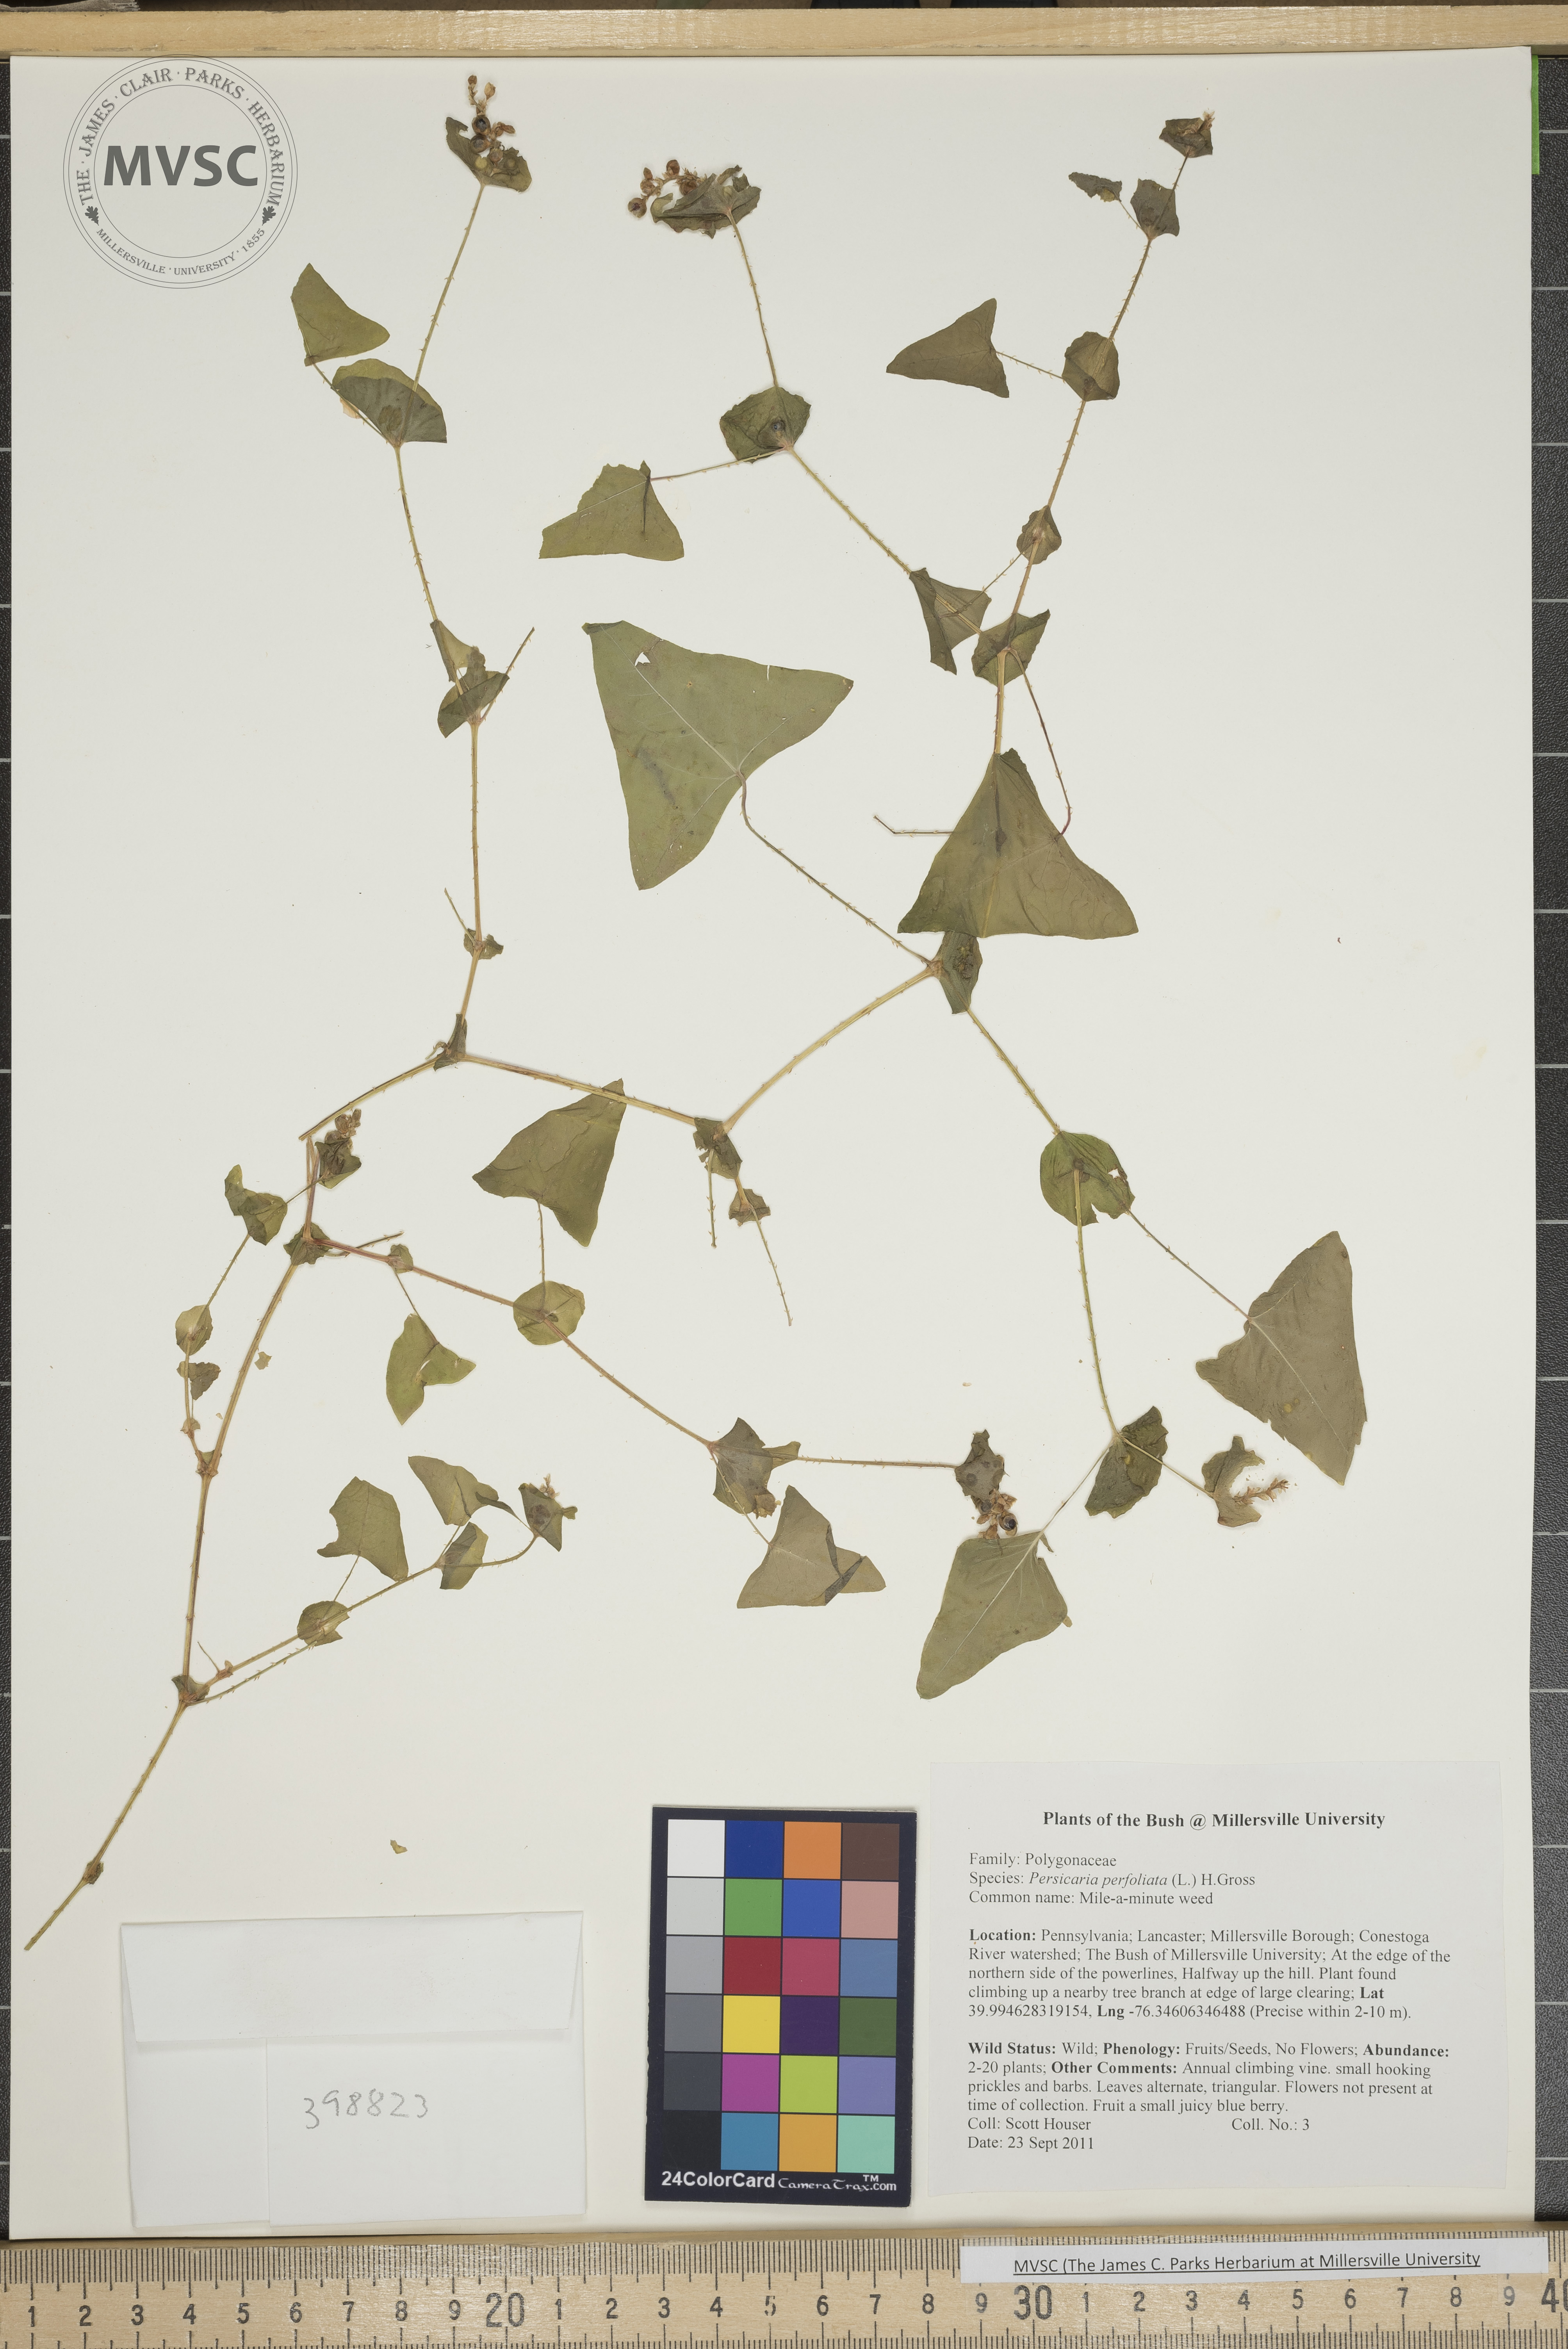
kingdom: Plantae
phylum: Tracheophyta
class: Magnoliopsida
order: Caryophyllales
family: Polygonaceae
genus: Persicaria
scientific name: Persicaria perfoliata
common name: Mile-a-minute weed
